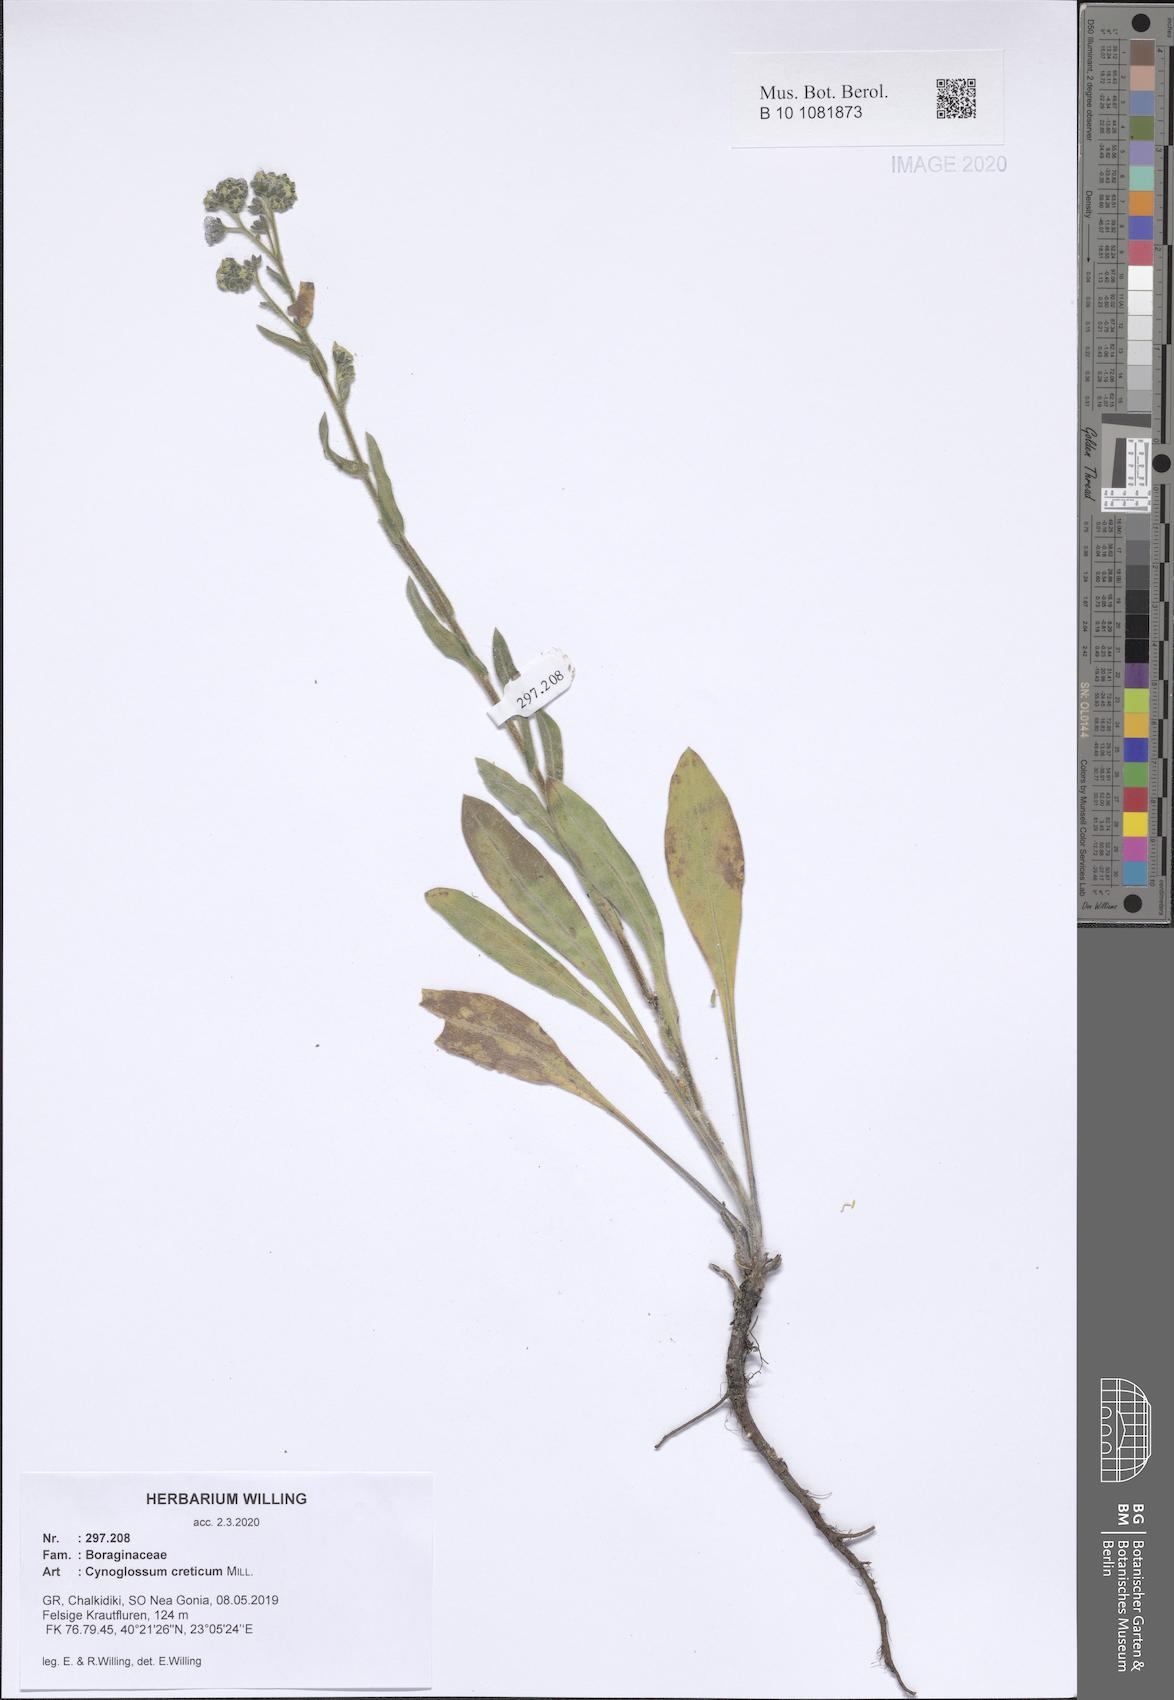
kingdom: Plantae
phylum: Tracheophyta
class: Magnoliopsida
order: Boraginales
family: Boraginaceae
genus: Cynoglossum
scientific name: Cynoglossum creticum
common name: Blue hound's tongue
